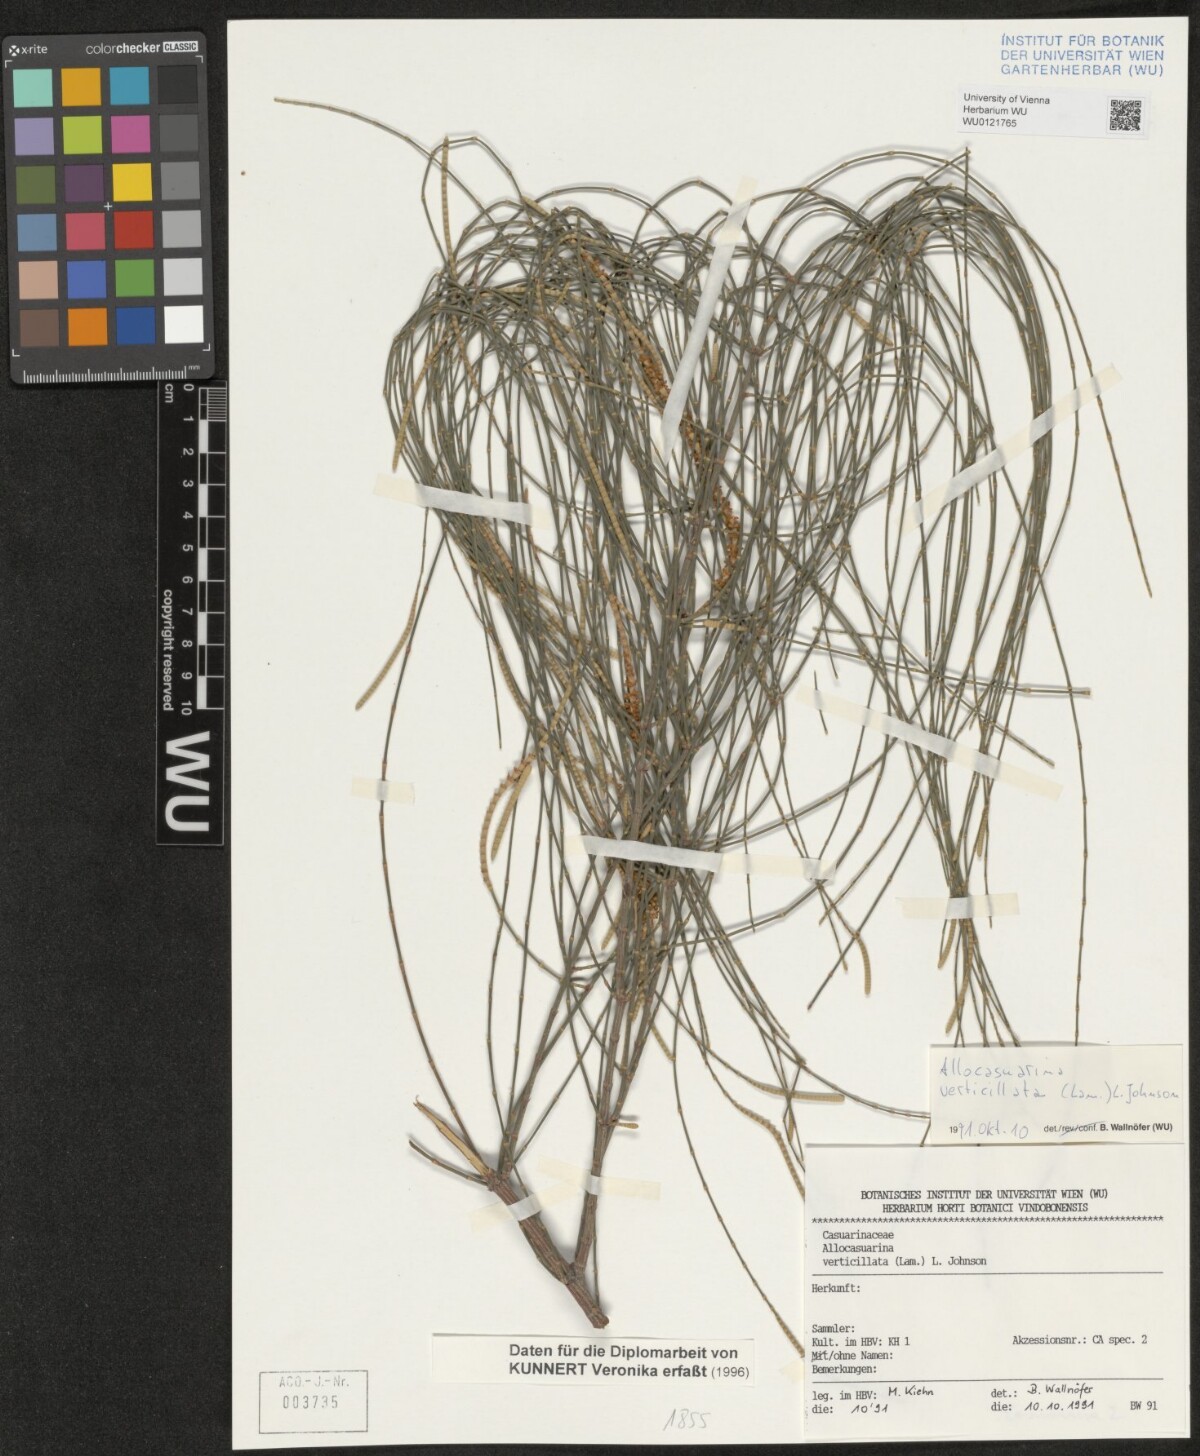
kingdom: Plantae
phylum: Tracheophyta
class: Magnoliopsida
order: Fagales
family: Casuarinaceae
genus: Allocasuarina
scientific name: Allocasuarina verticillata
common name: Drooping she-oak
